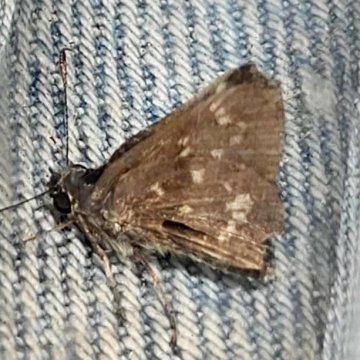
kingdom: Animalia
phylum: Arthropoda
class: Insecta
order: Lepidoptera
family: Hesperiidae
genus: Mastor
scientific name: Mastor hegon
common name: Pepper and Salt Skipper
